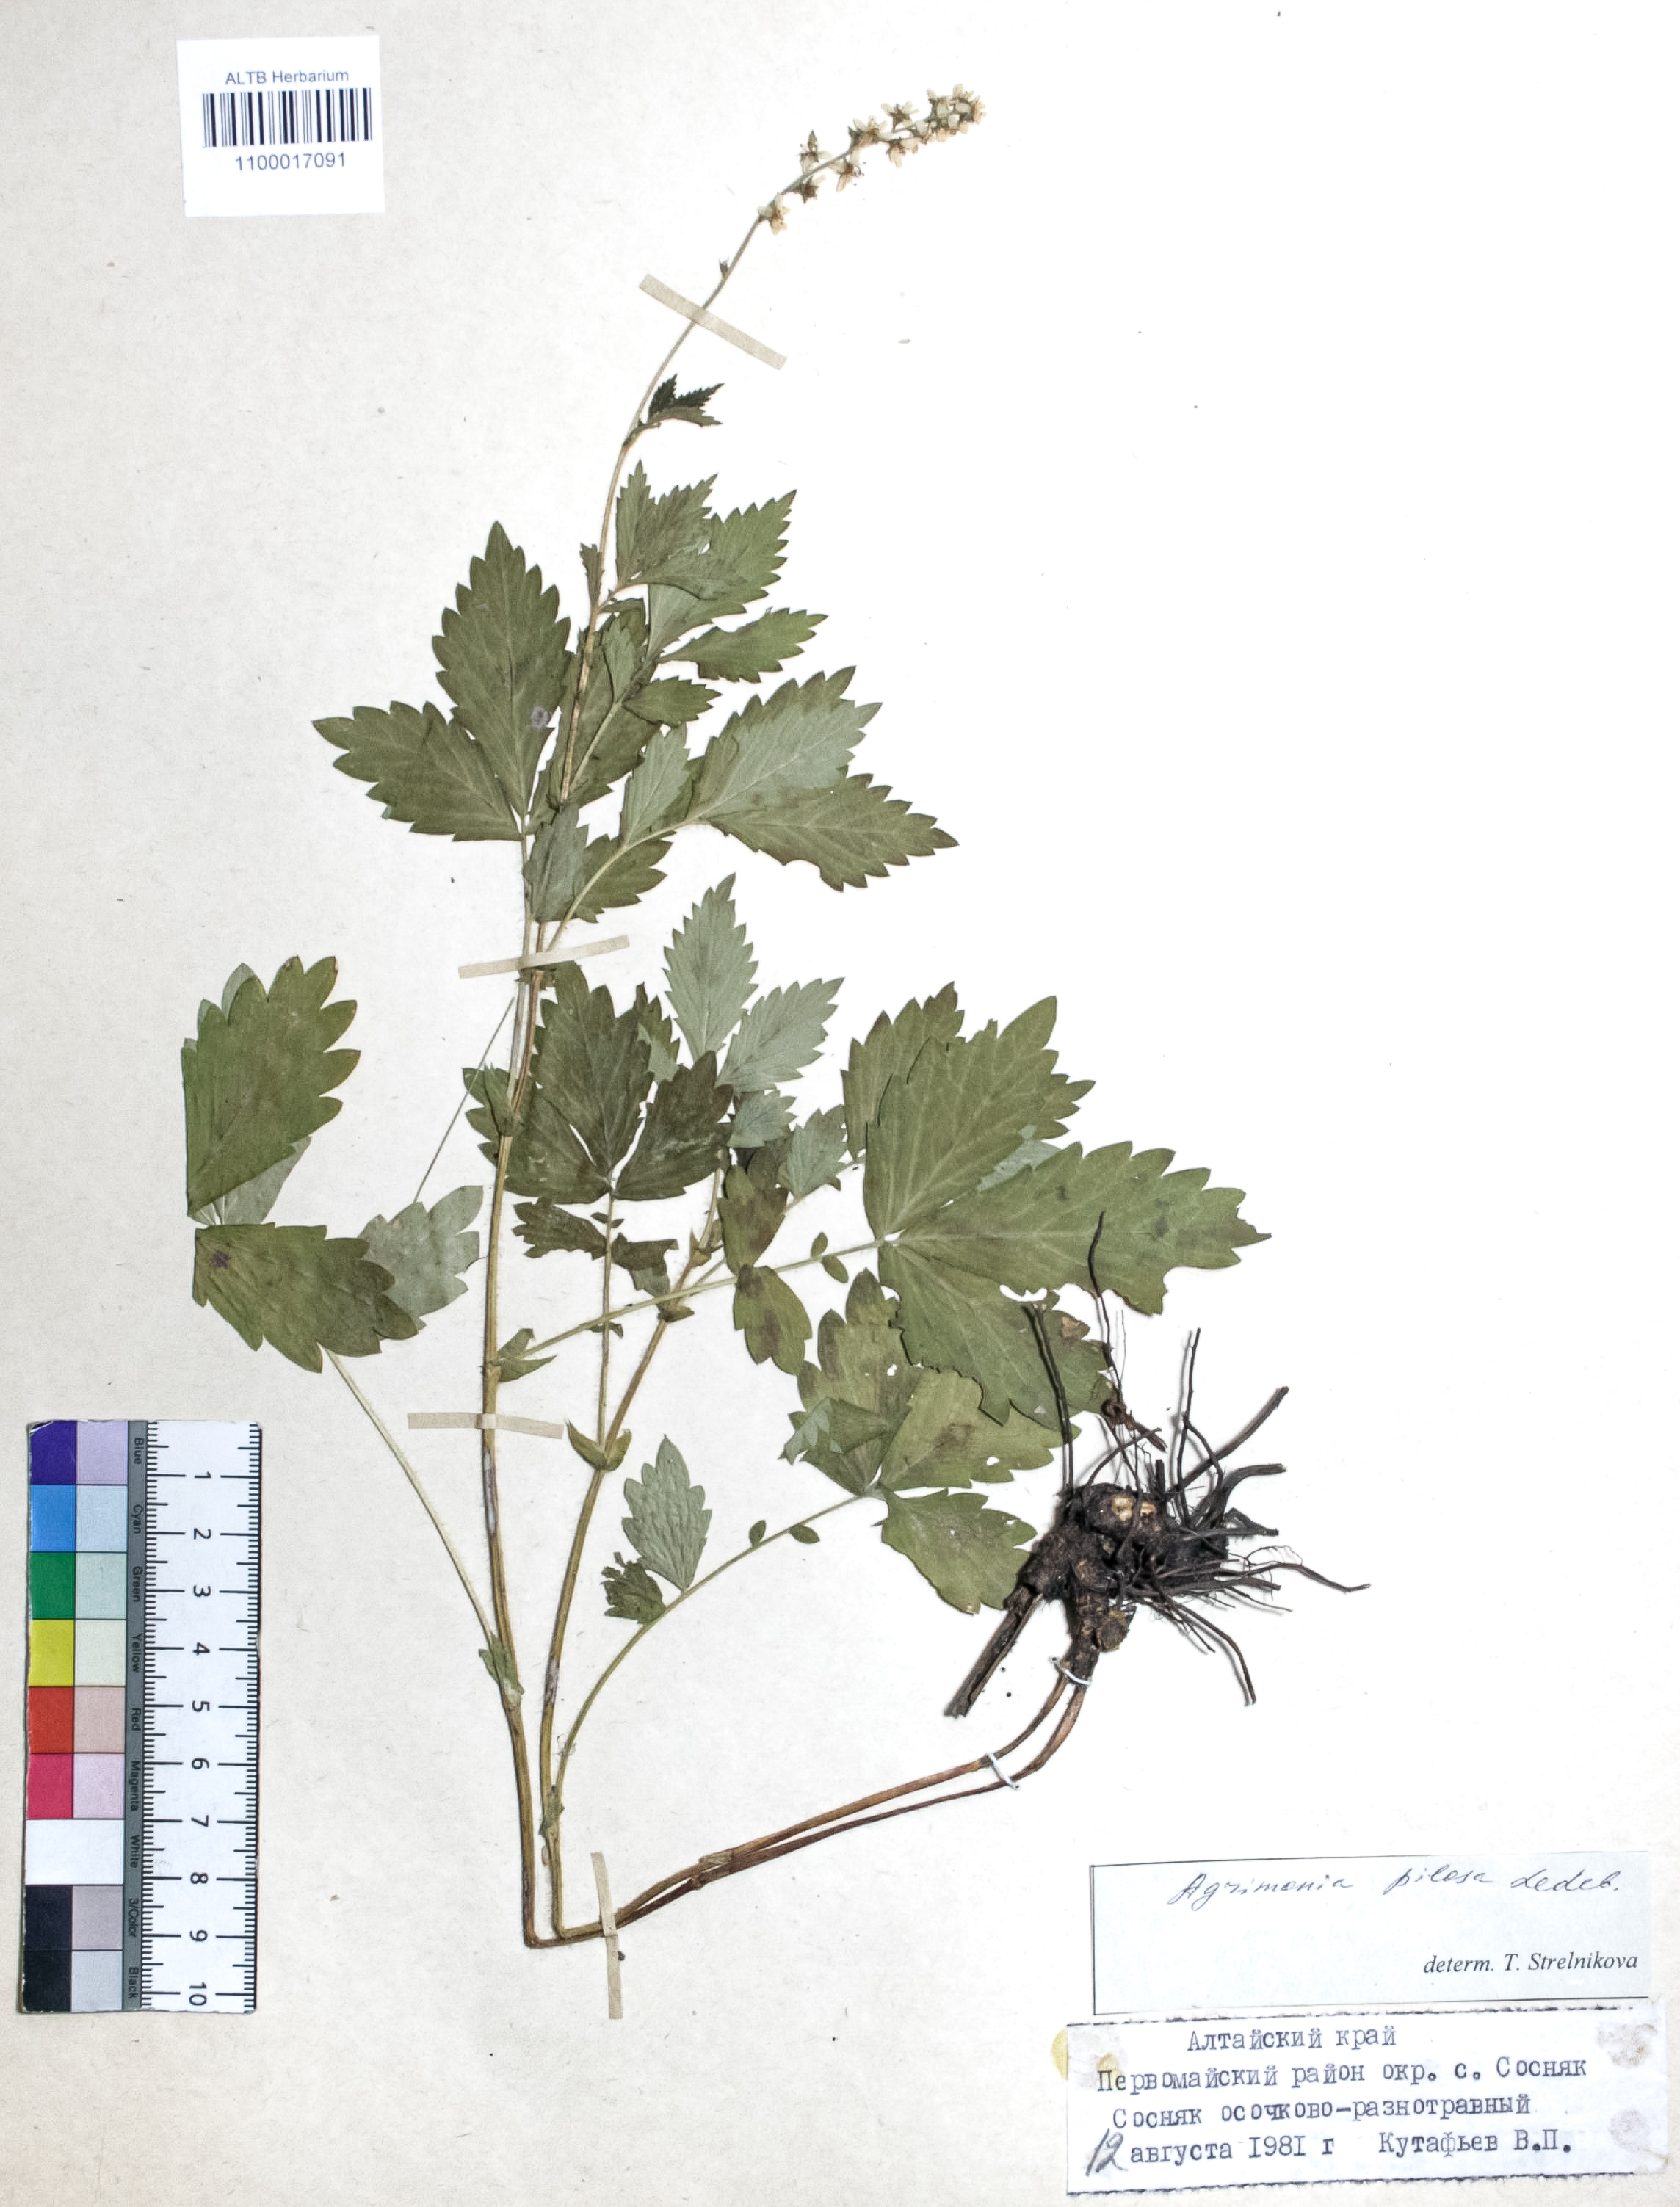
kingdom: Plantae
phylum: Tracheophyta
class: Magnoliopsida
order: Rosales
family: Rosaceae
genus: Agrimonia
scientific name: Agrimonia pilosa
